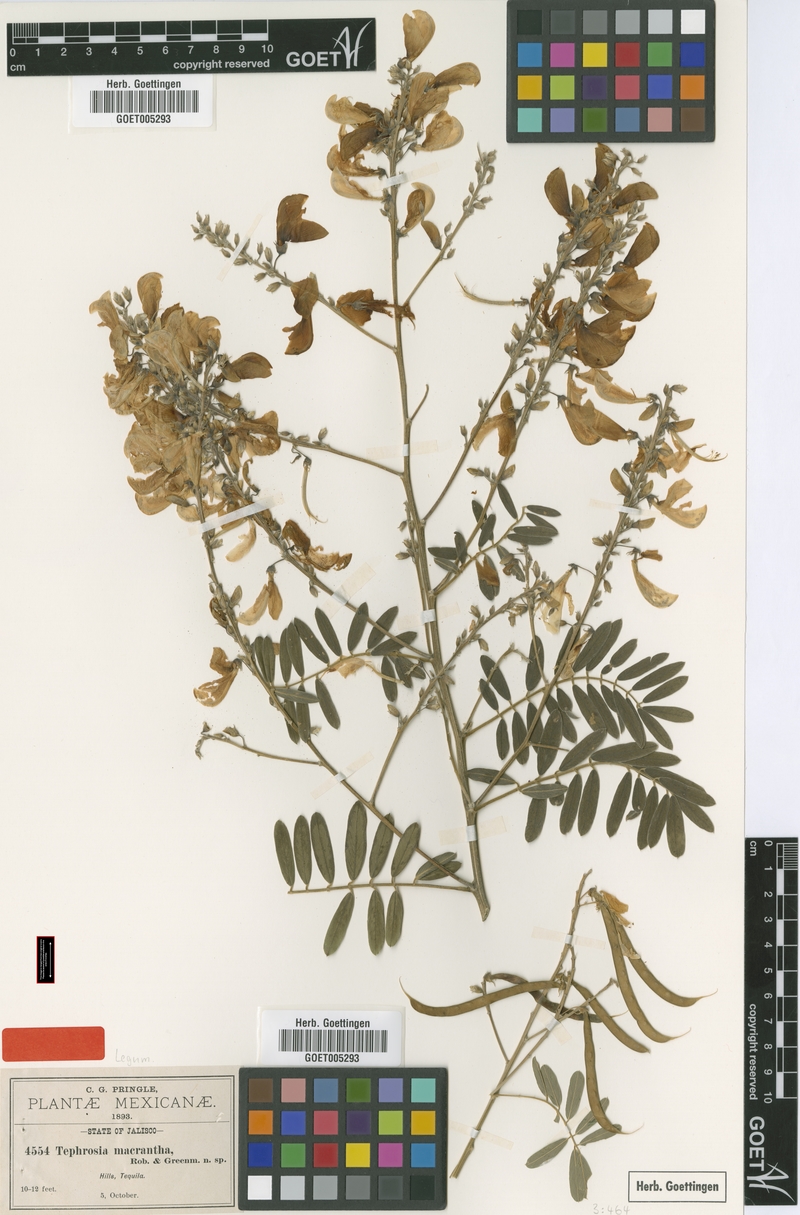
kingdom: Plantae
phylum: Tracheophyta
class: Magnoliopsida
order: Fabales
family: Fabaceae
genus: Tephrosia
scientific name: Tephrosia macrantha
